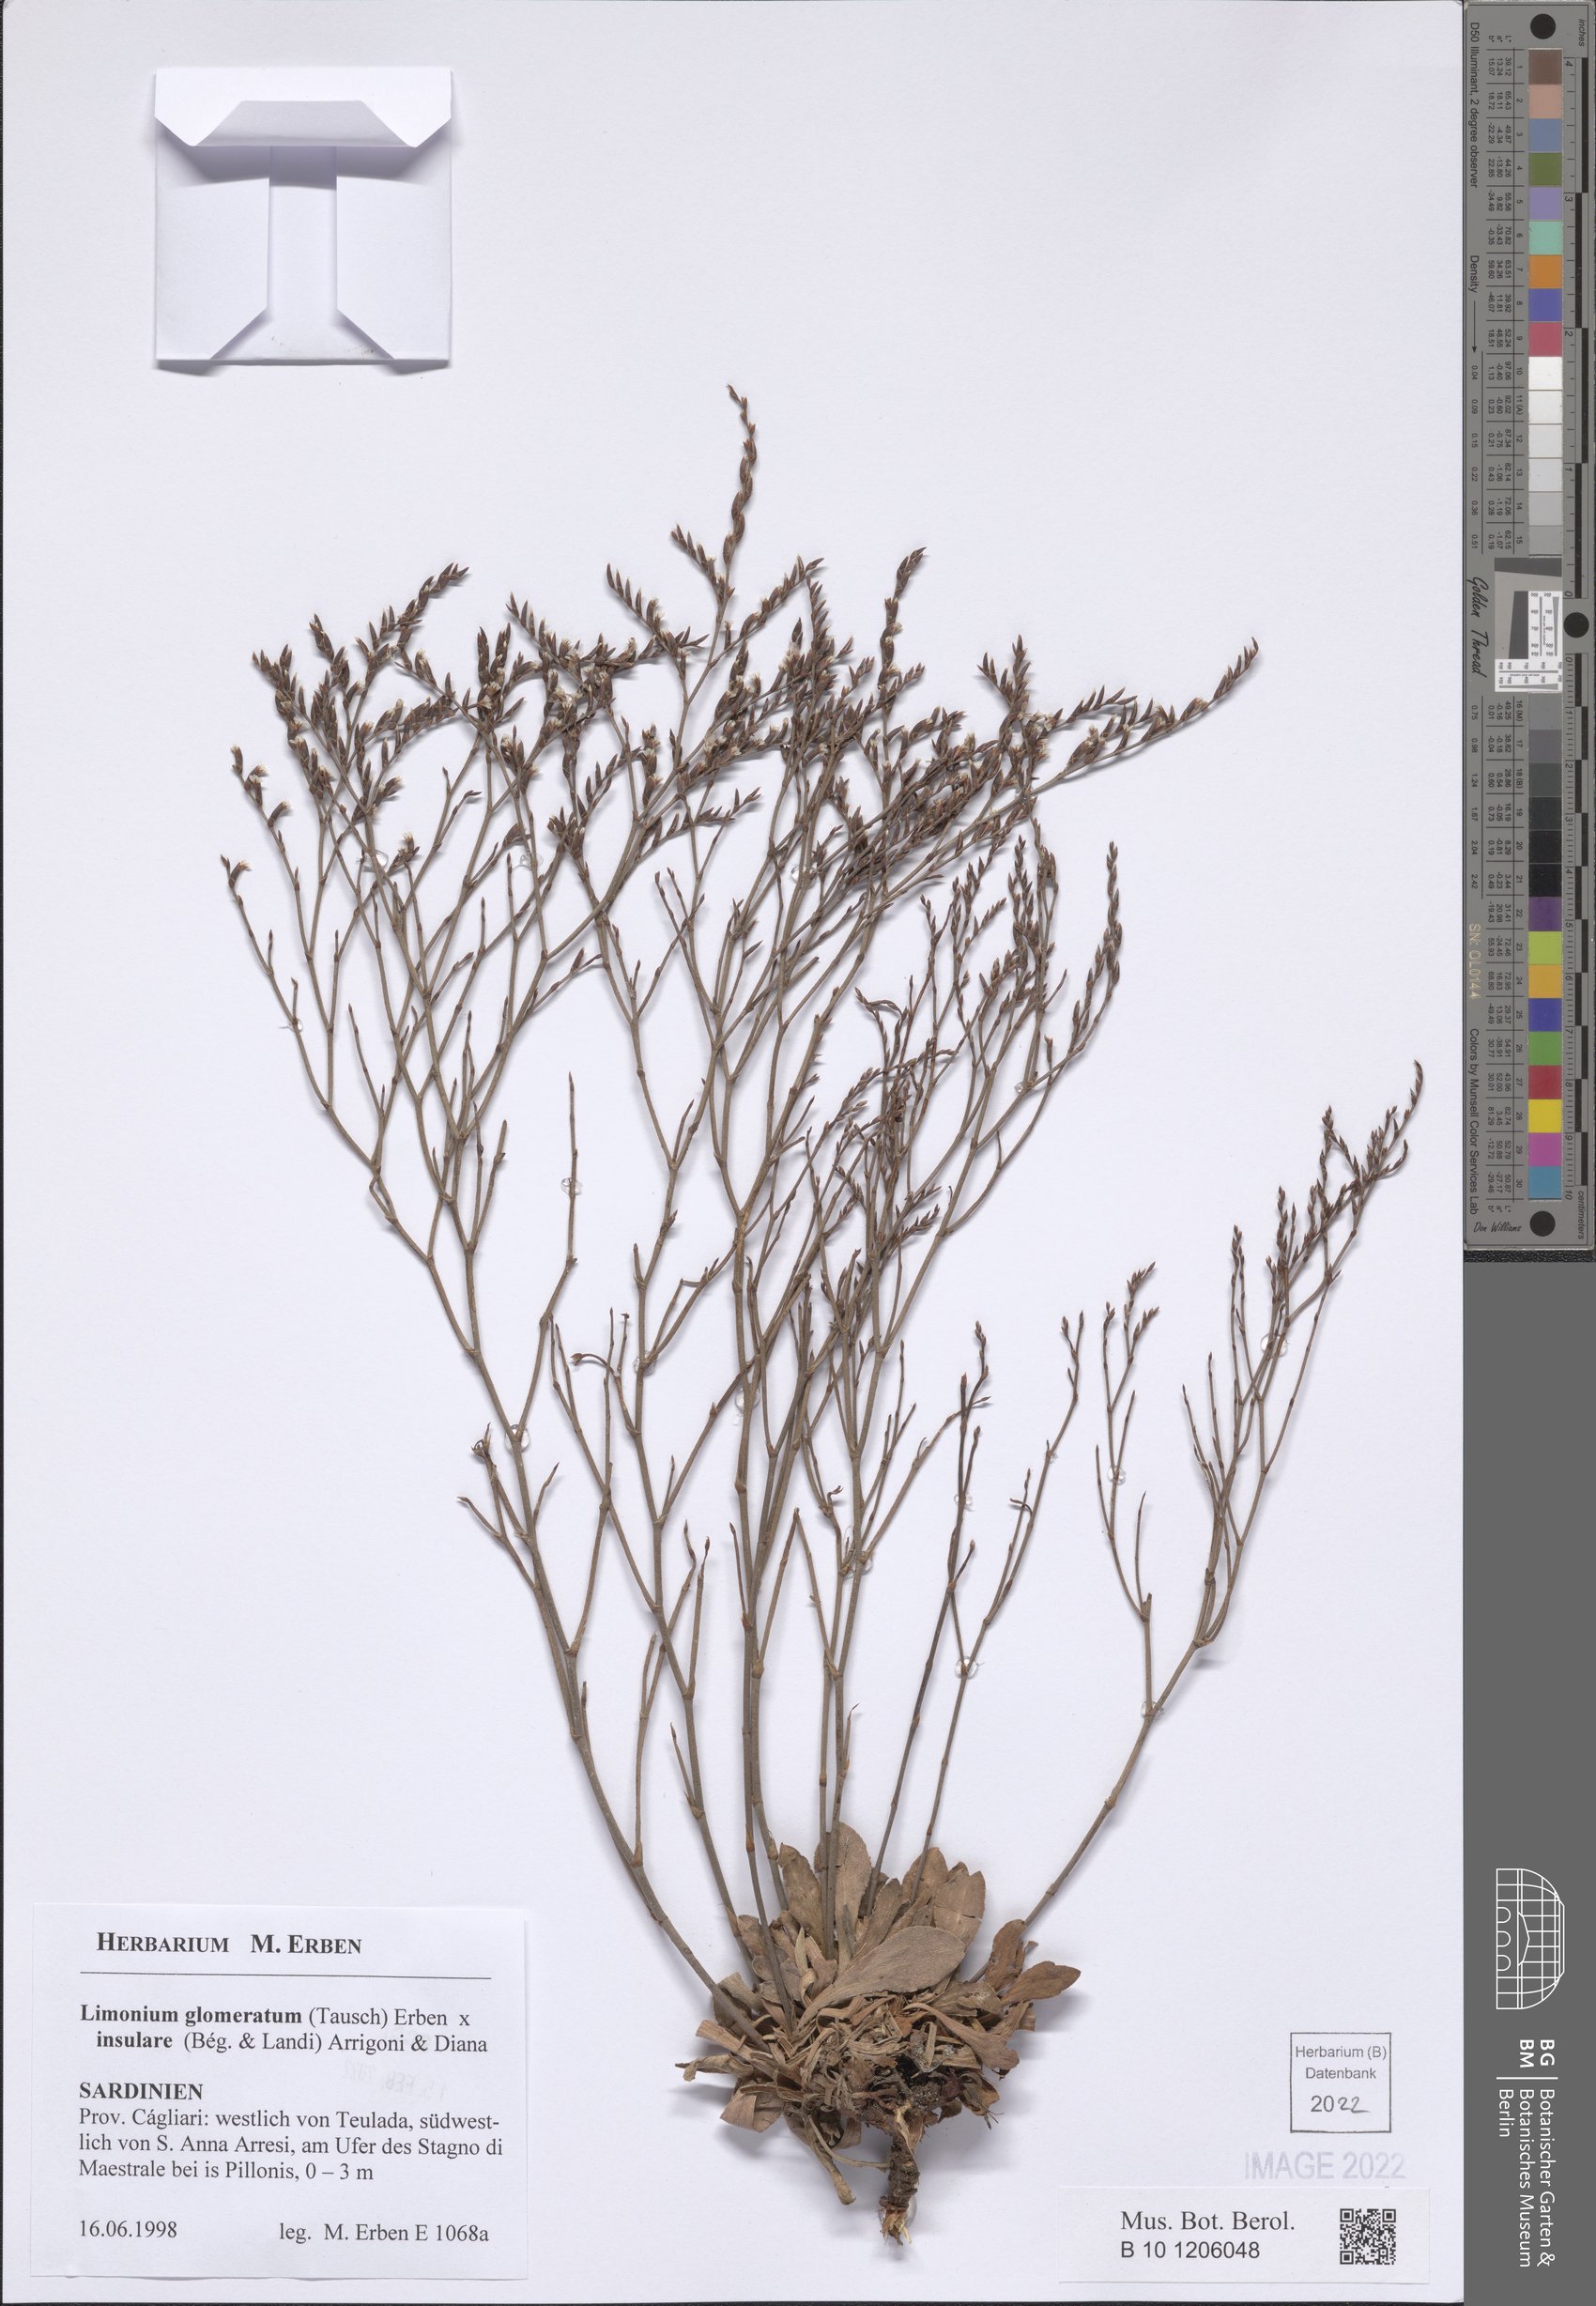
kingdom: Plantae
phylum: Tracheophyta
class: Magnoliopsida
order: Caryophyllales
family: Plumbaginaceae
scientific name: Plumbaginaceae
